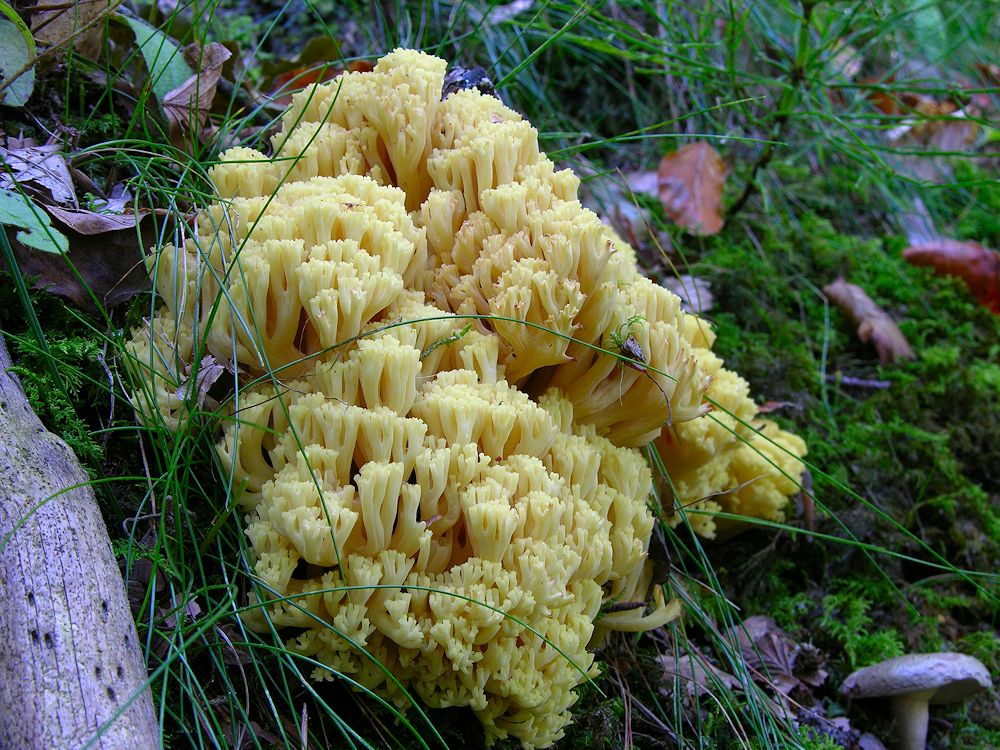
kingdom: Fungi
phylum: Basidiomycota
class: Agaricomycetes
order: Gomphales
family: Gomphaceae
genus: Ramaria
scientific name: Ramaria sanguinea
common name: blodplettet koralsvamp
